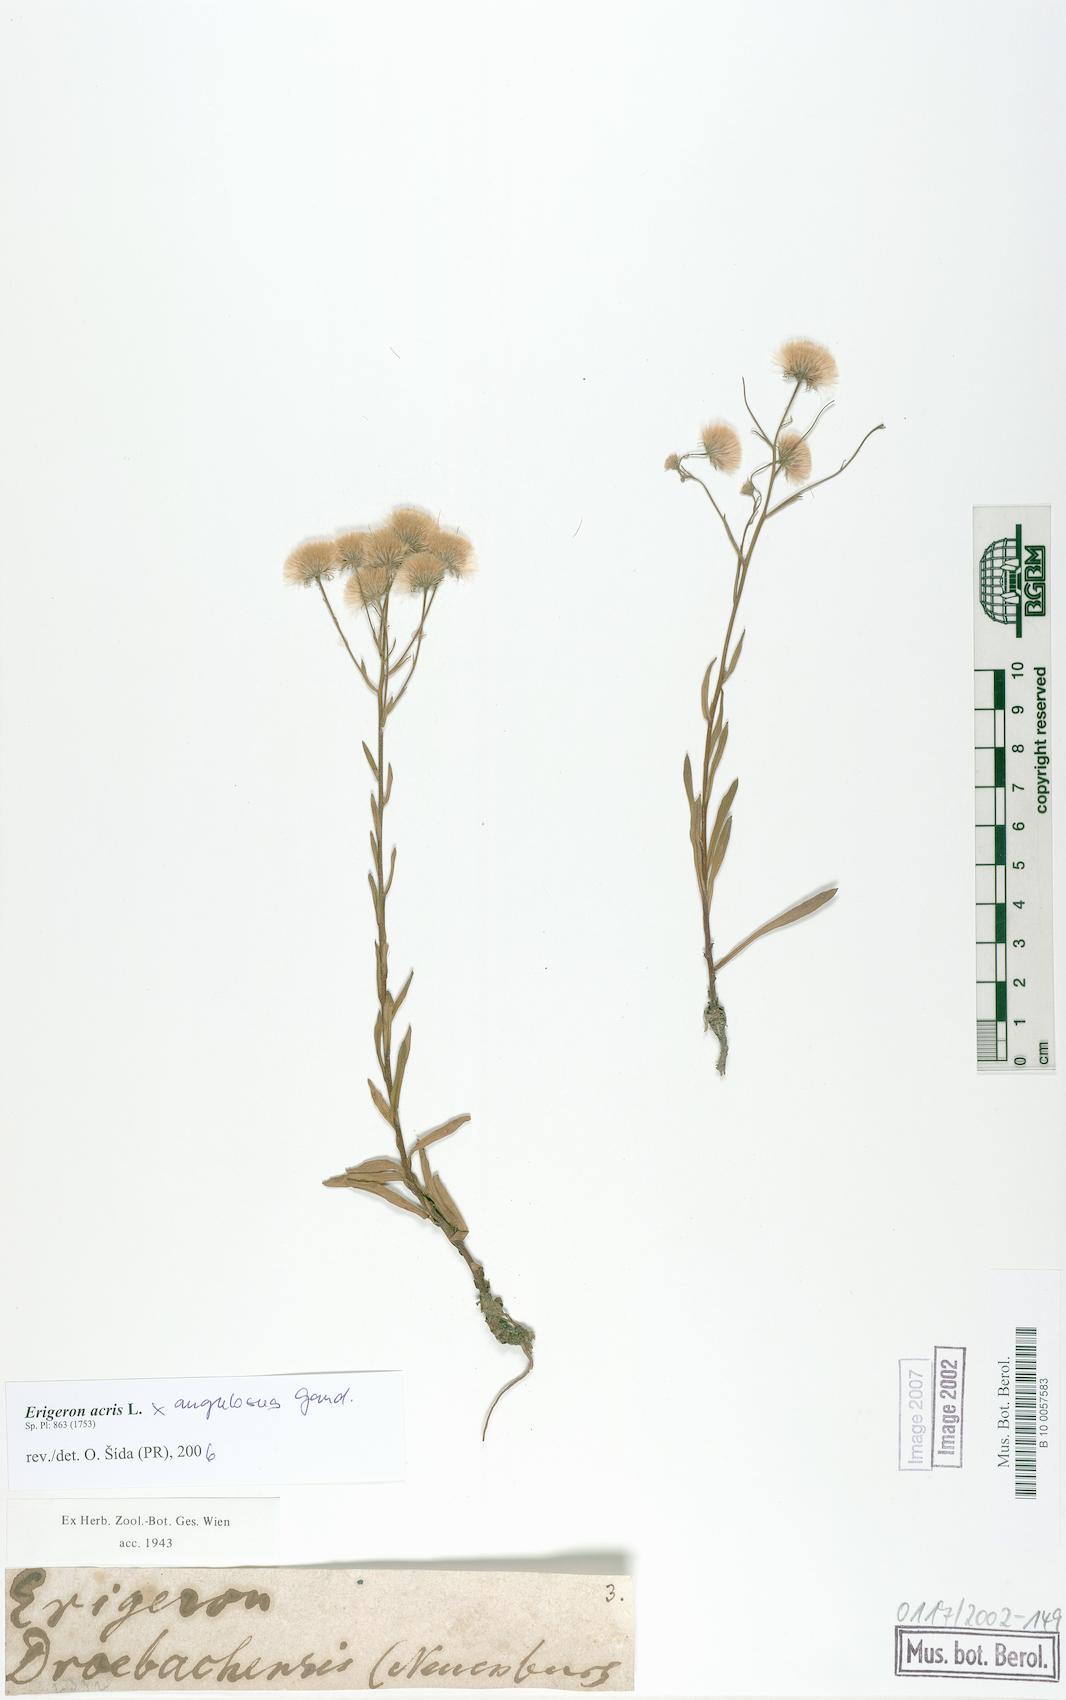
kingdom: Plantae
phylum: Tracheophyta
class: Magnoliopsida
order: Asterales
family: Asteraceae
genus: Erigeron
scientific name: Erigeron
